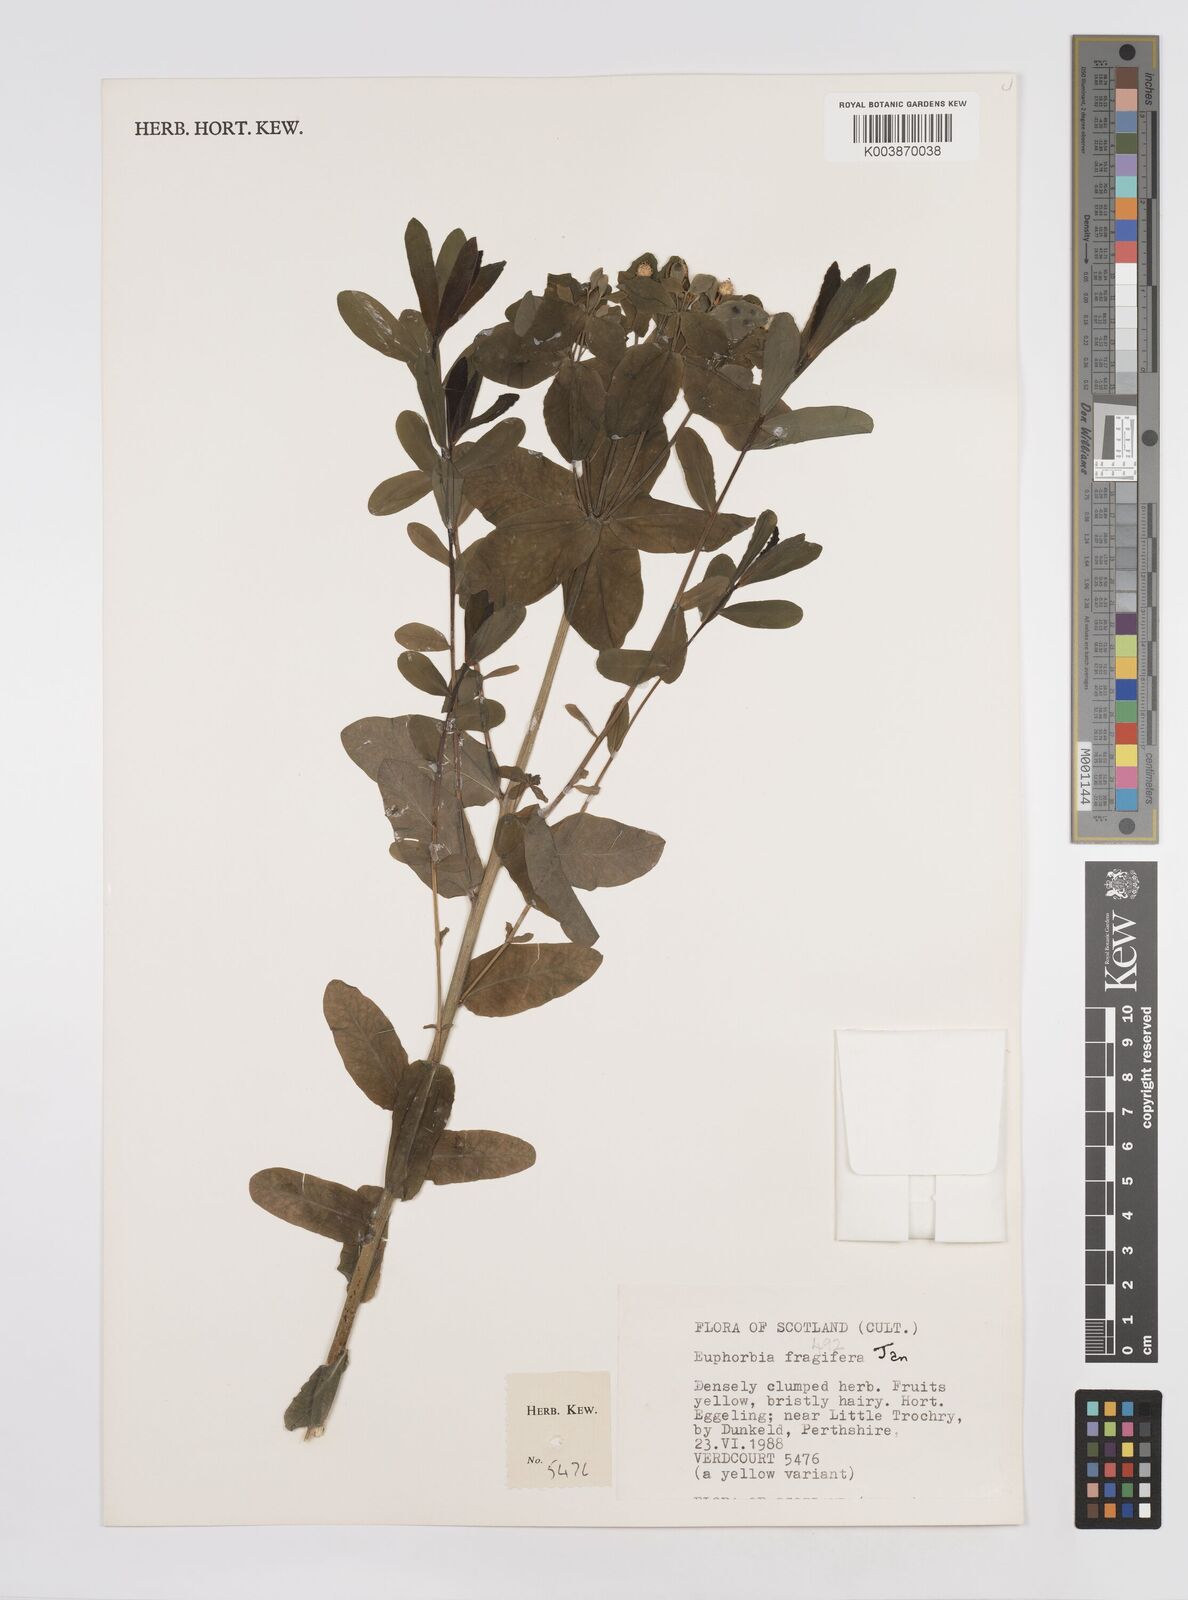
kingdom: Plantae
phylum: Tracheophyta
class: Magnoliopsida
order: Malpighiales
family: Euphorbiaceae
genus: Euphorbia
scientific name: Euphorbia epithymoides
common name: Cushion spurge
